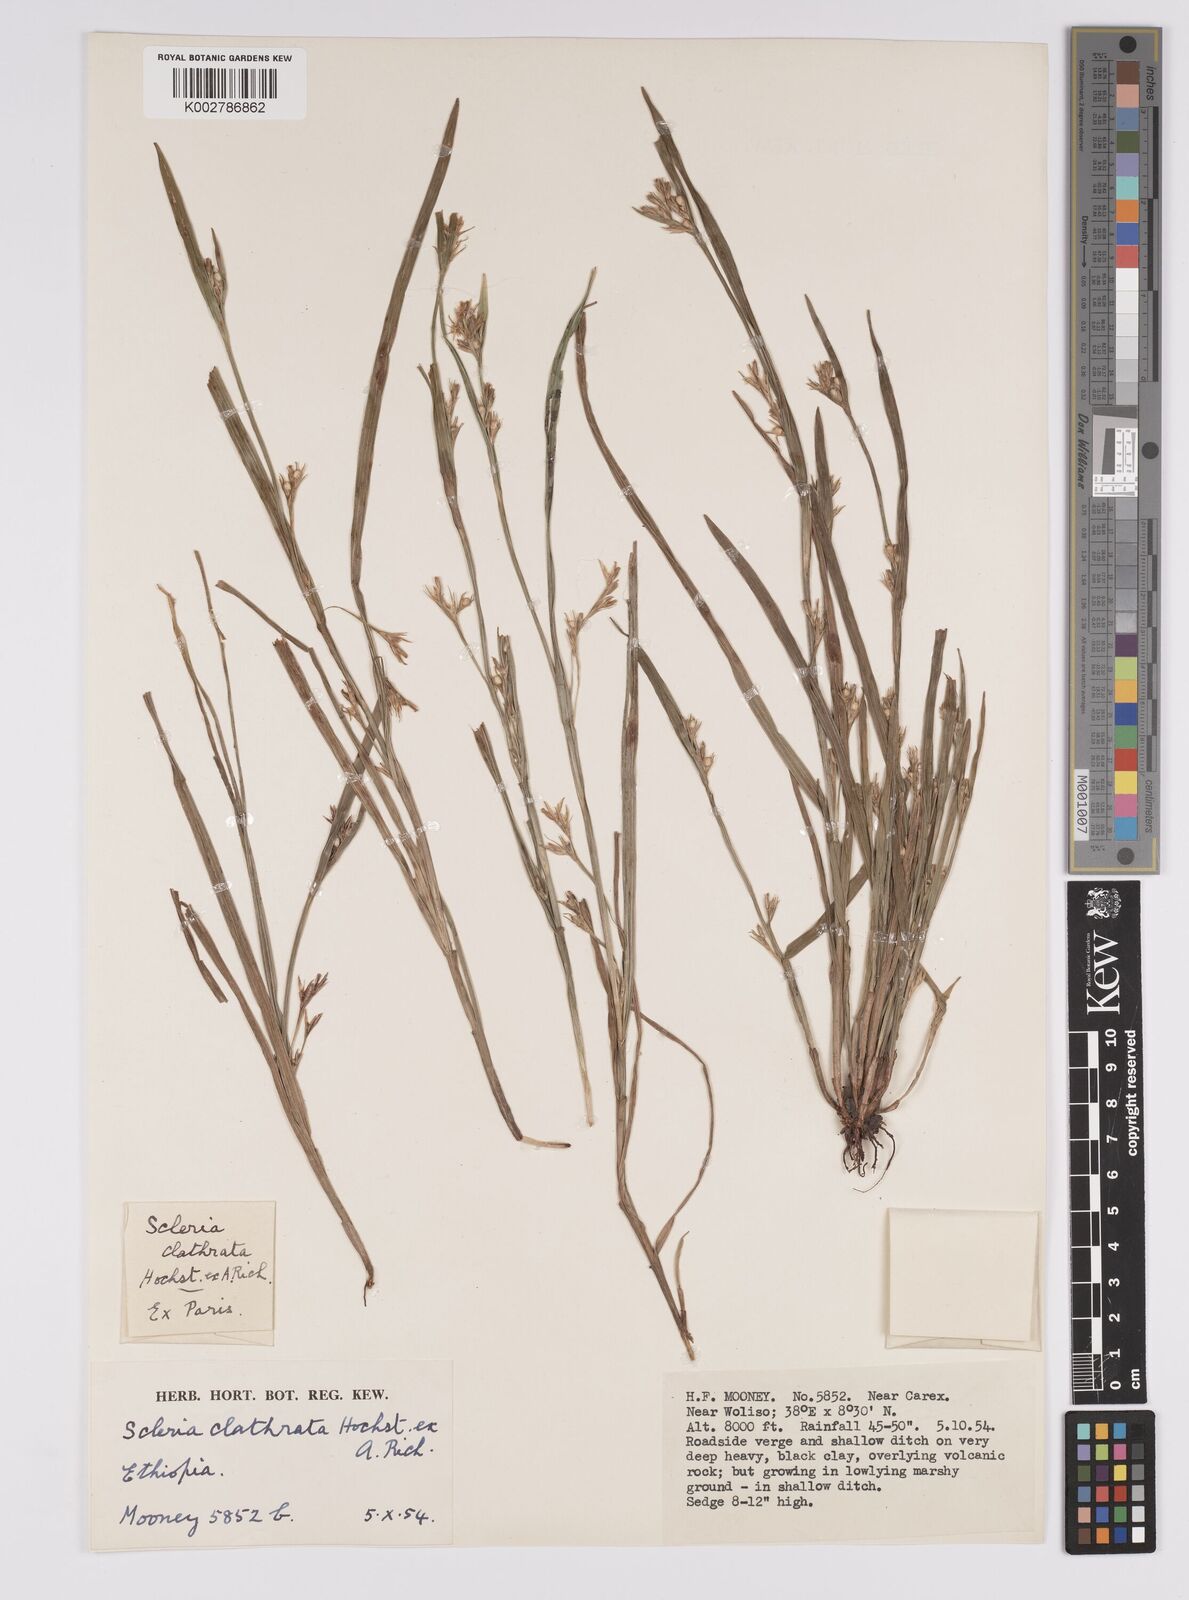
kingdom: Plantae
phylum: Tracheophyta
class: Liliopsida
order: Poales
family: Cyperaceae
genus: Scleria
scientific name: Scleria clathrata
